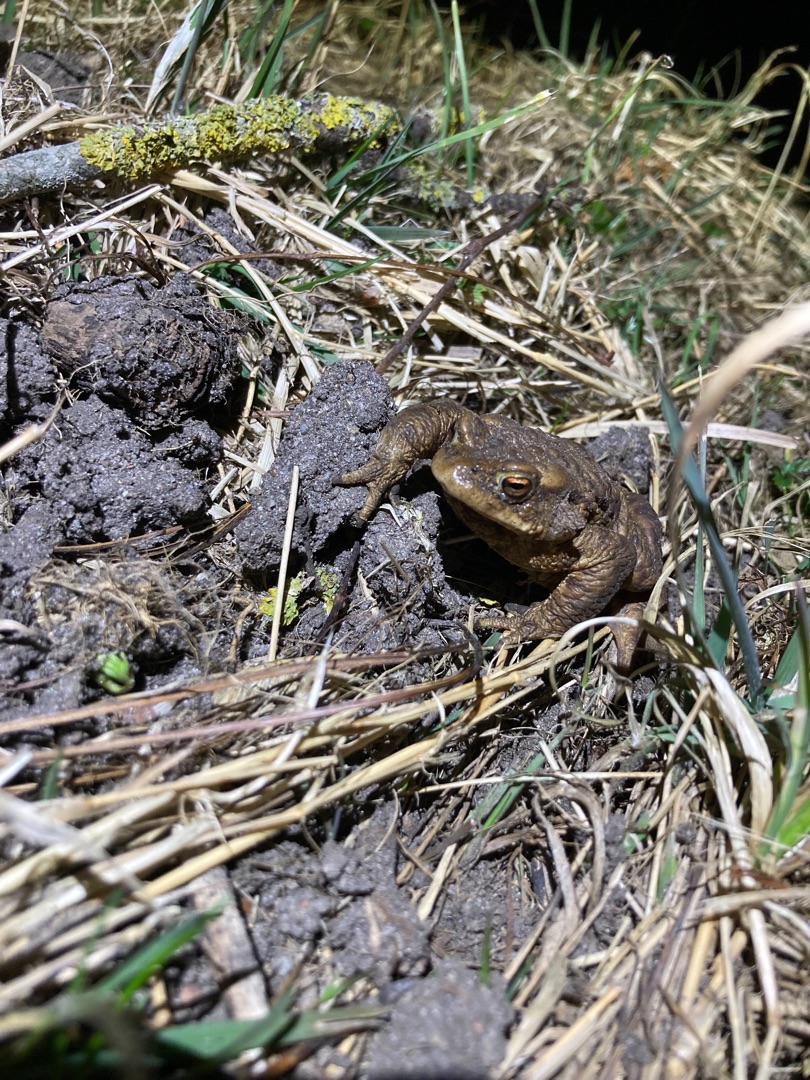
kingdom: Animalia
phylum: Chordata
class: Amphibia
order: Anura
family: Bufonidae
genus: Bufo
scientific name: Bufo bufo
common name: Skrubtudse
